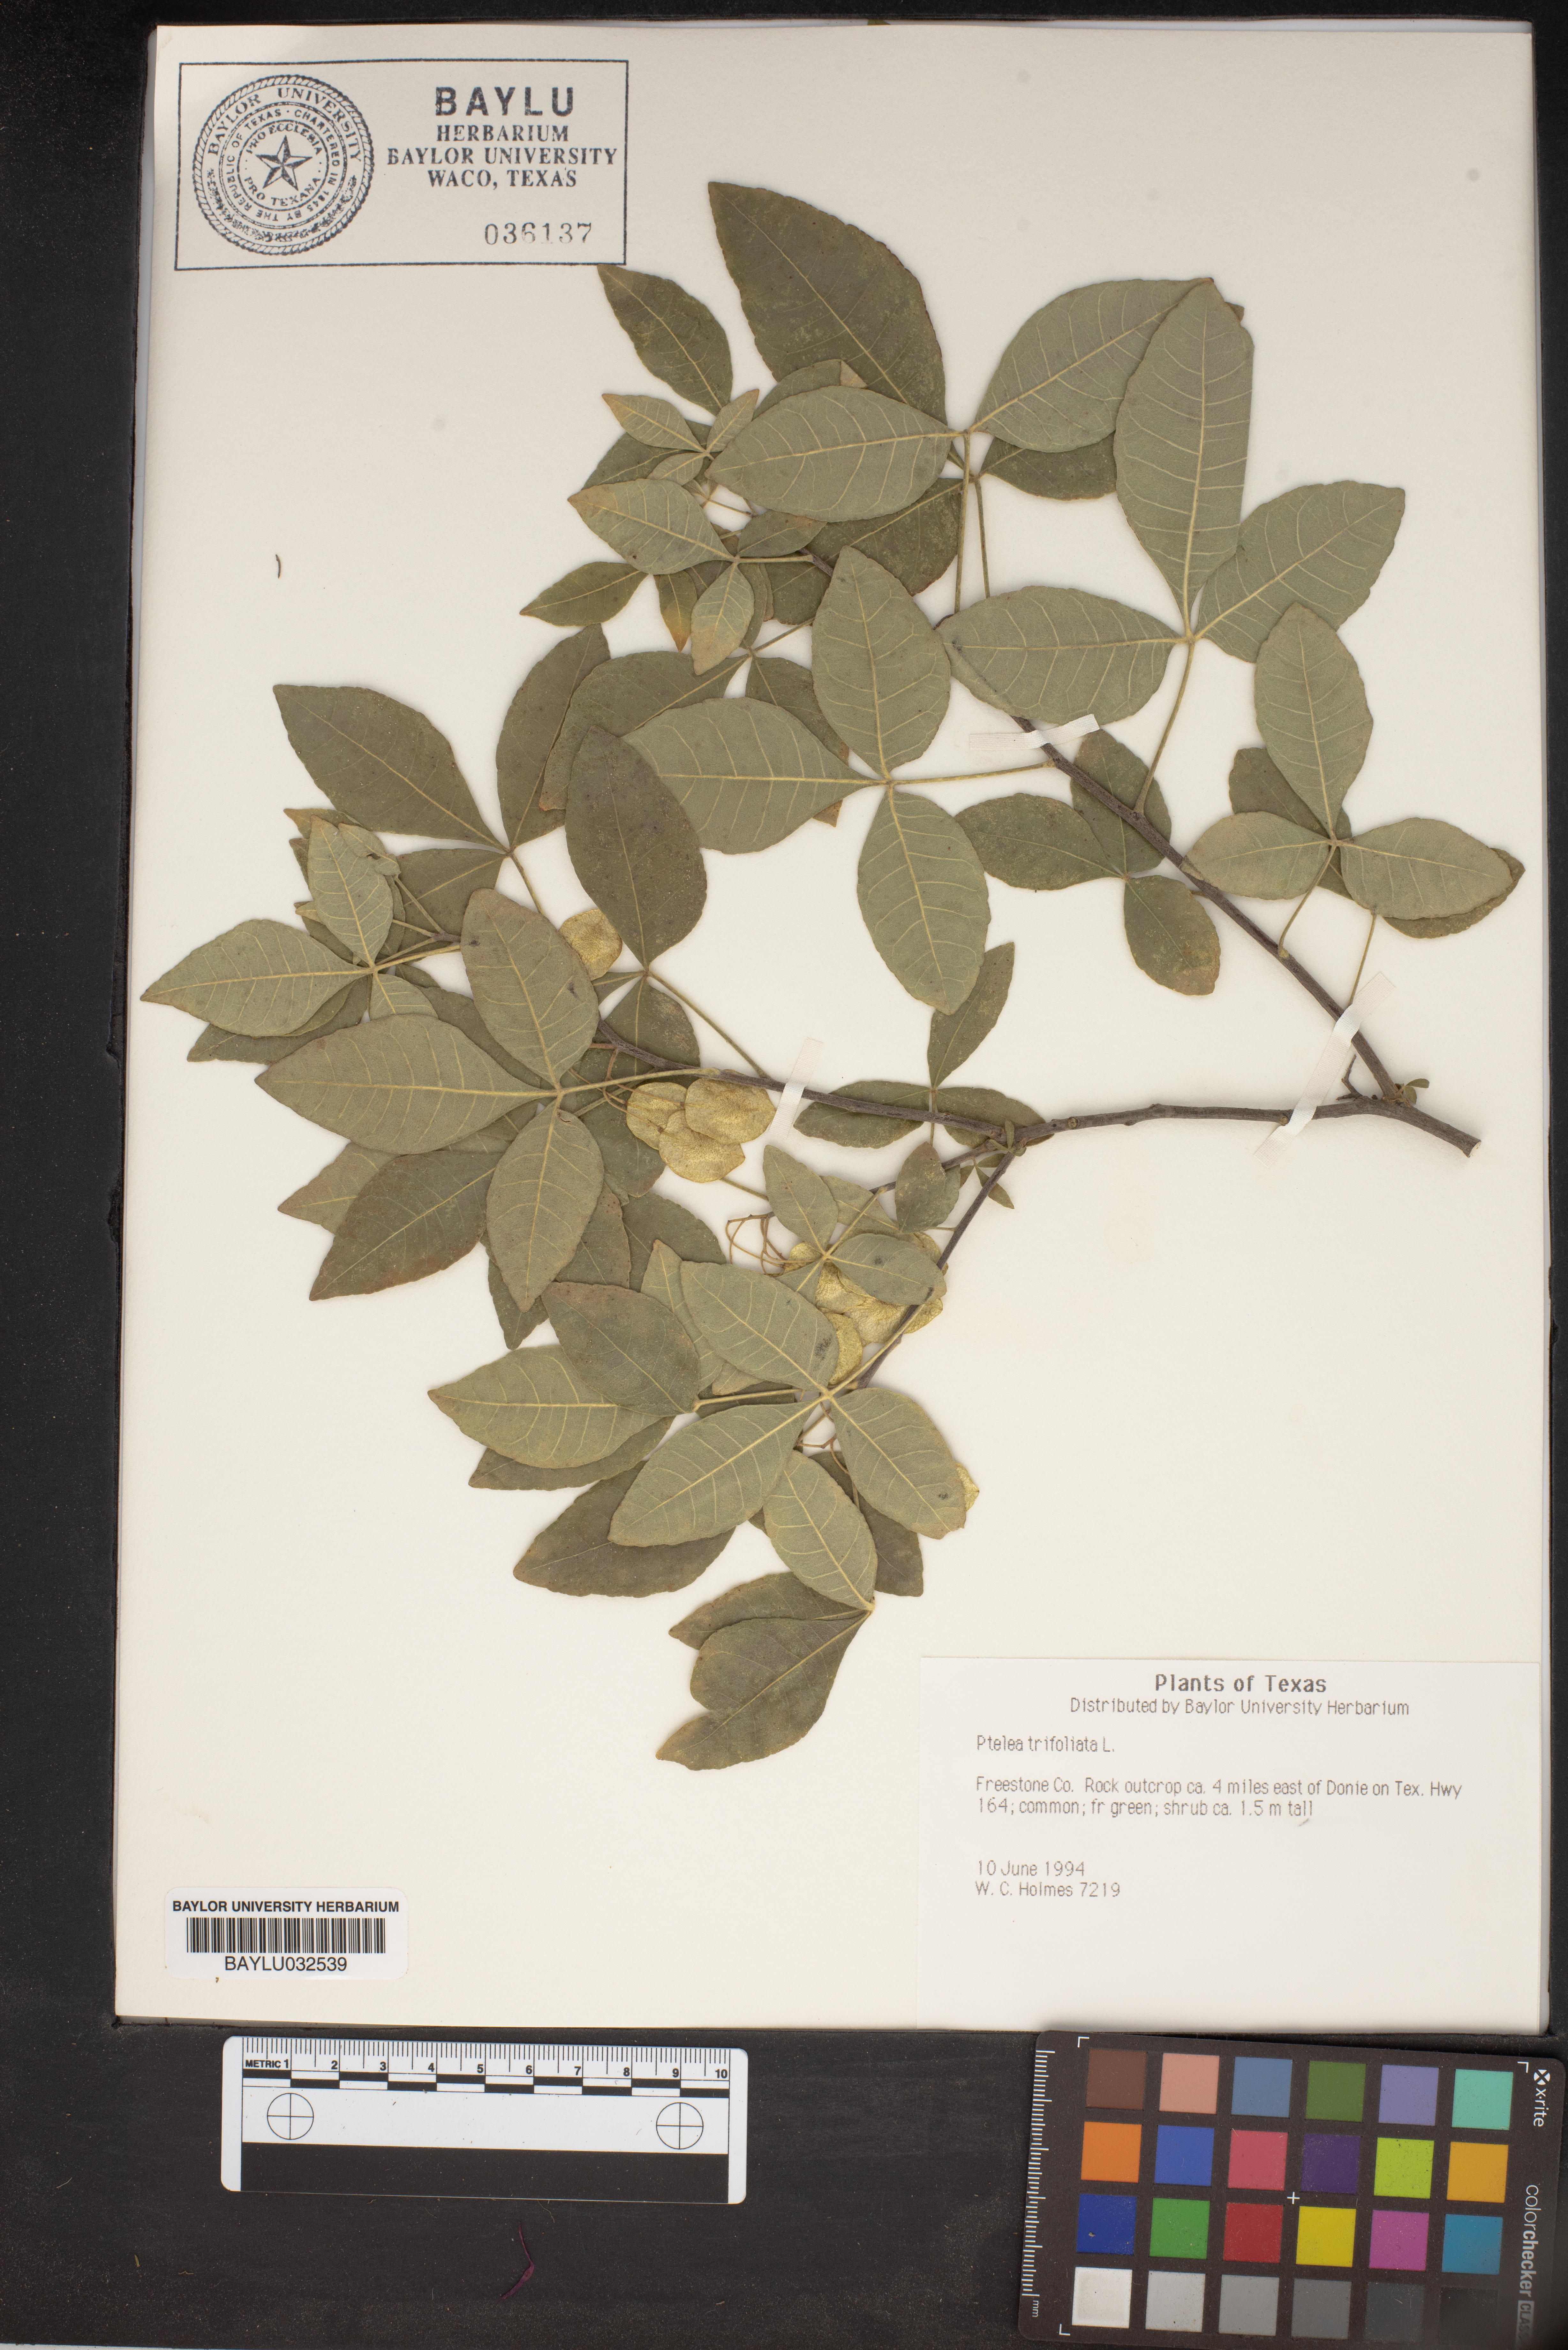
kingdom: Plantae
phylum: Tracheophyta
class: Magnoliopsida
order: Sapindales
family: Rutaceae
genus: Ptelea
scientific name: Ptelea trifoliata
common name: Common hop-tree
